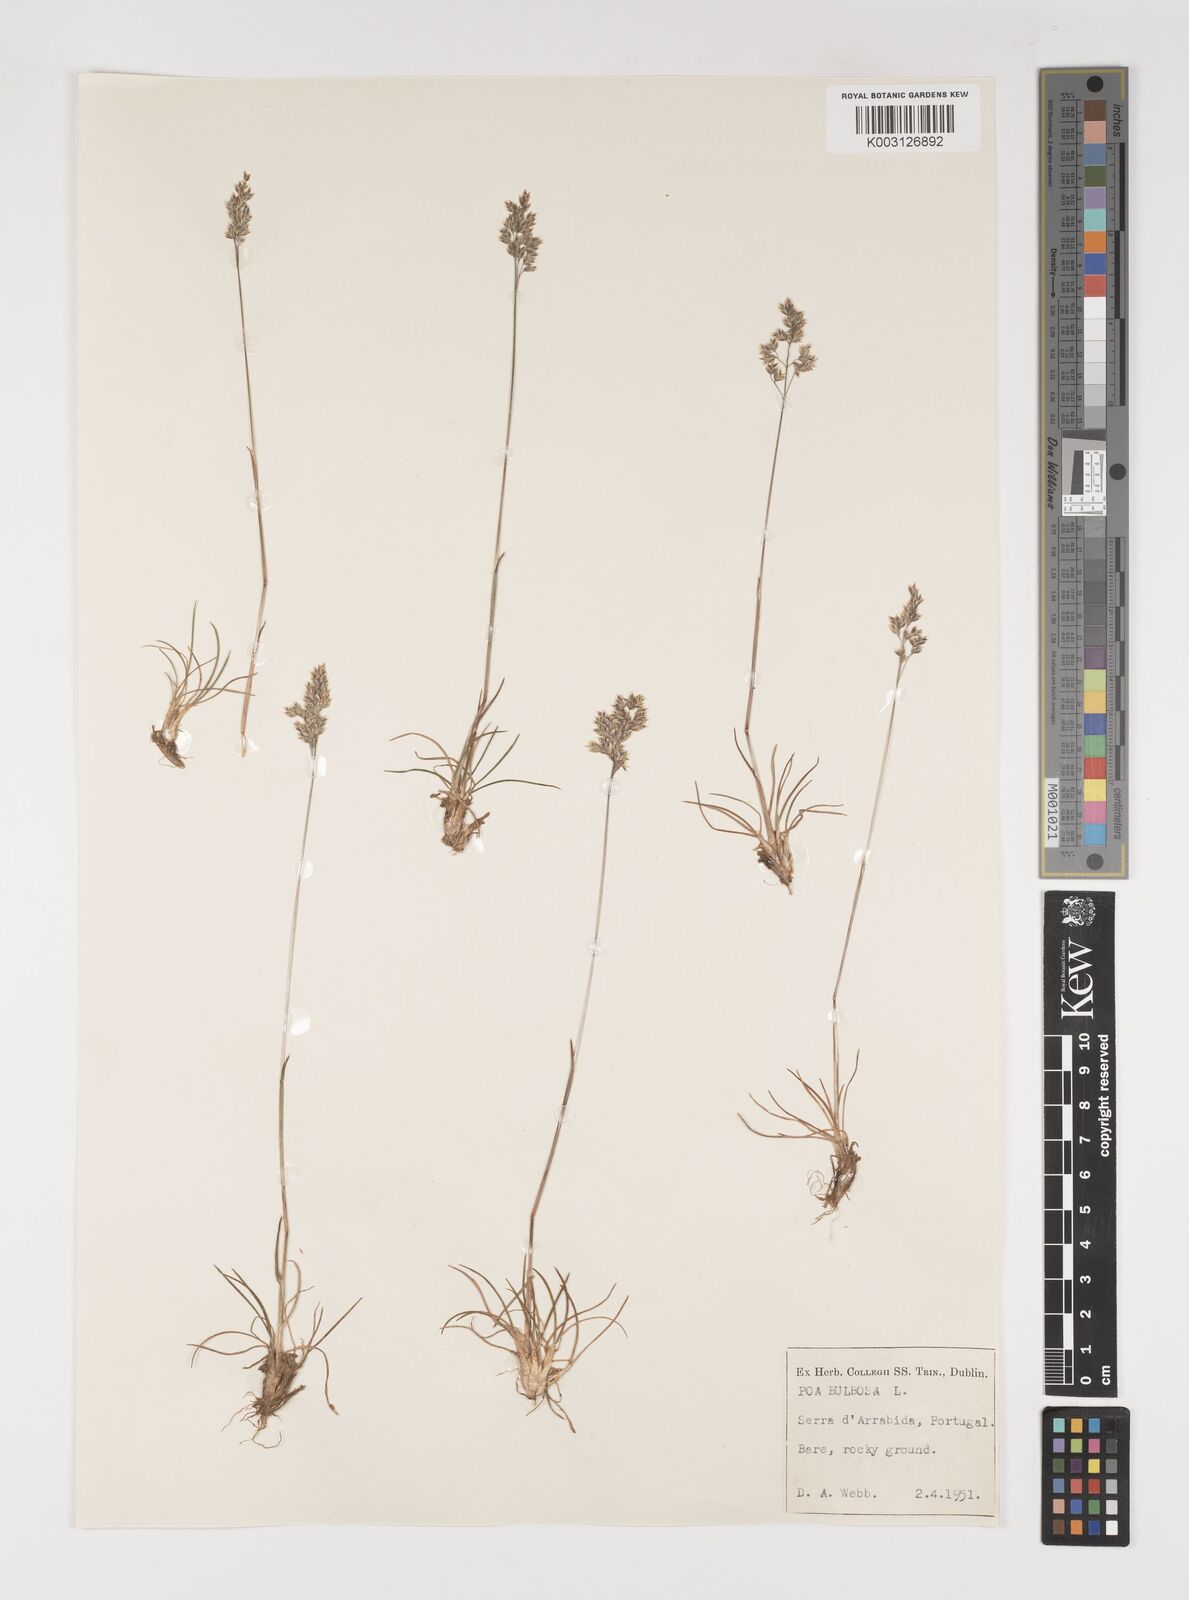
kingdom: Plantae
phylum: Tracheophyta
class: Liliopsida
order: Poales
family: Poaceae
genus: Poa
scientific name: Poa bulbosa
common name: Bulbous bluegrass
